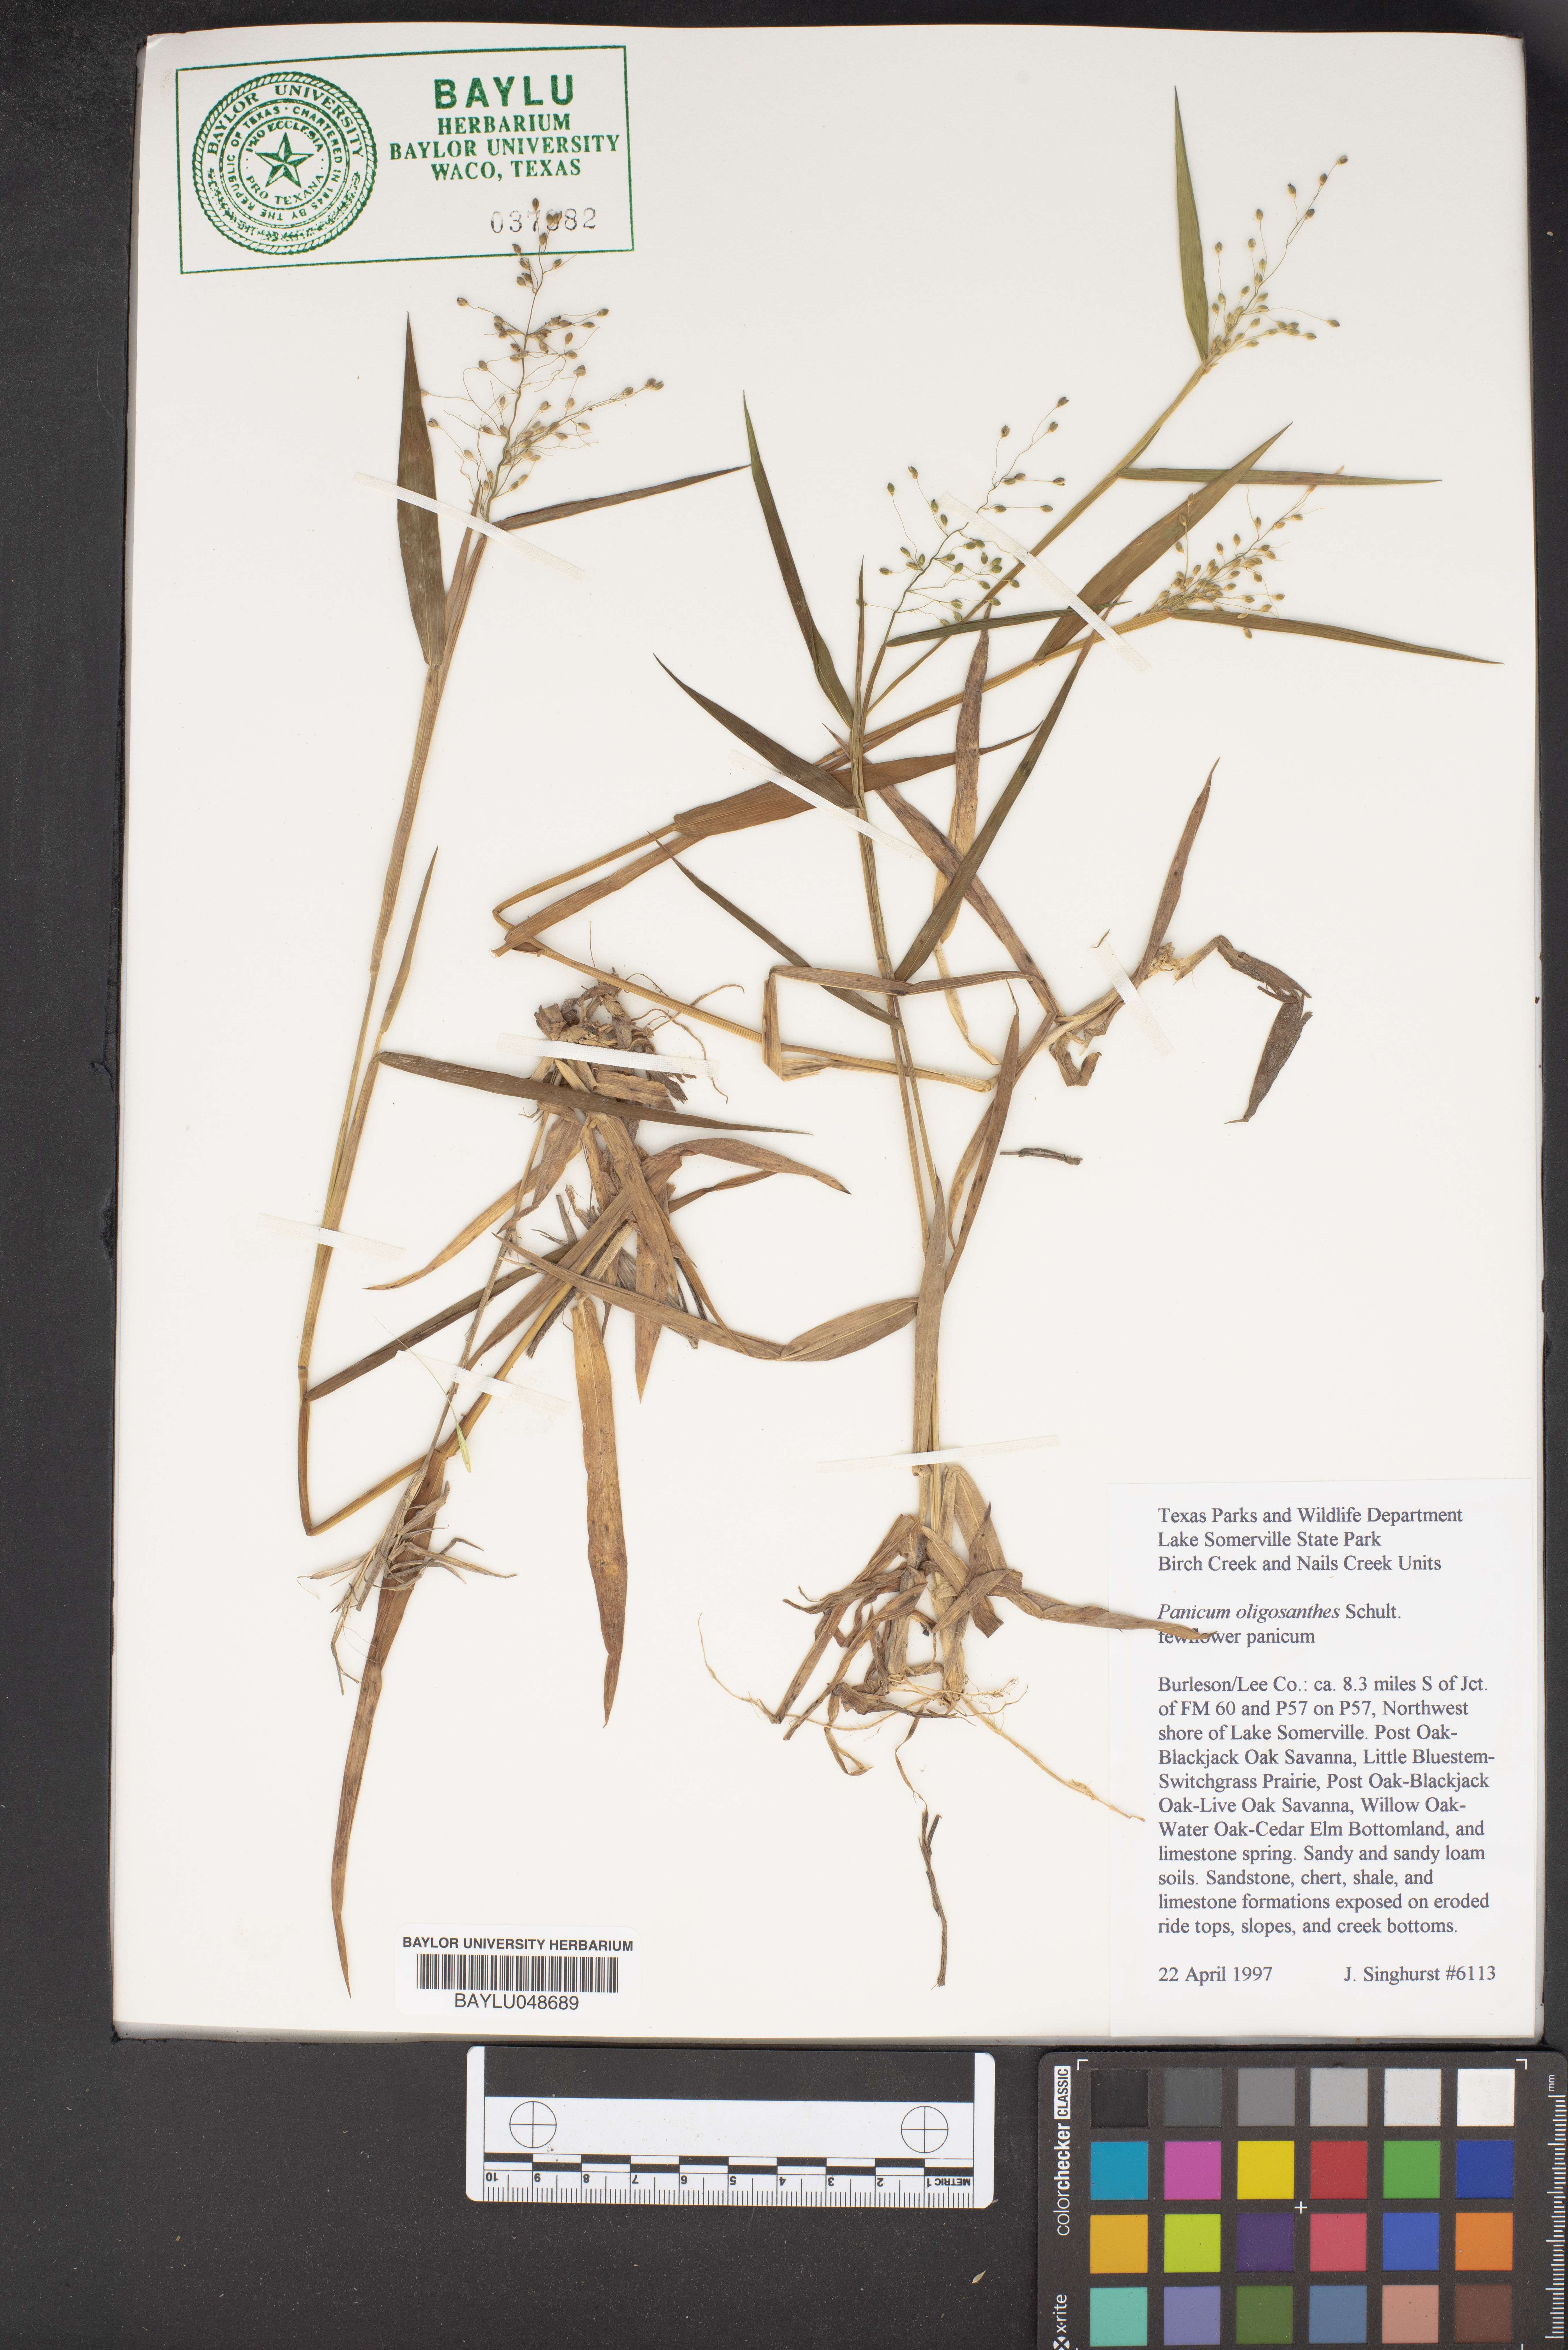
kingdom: Plantae
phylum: Tracheophyta
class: Liliopsida
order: Poales
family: Poaceae
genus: Dichanthelium
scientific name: Dichanthelium oligosanthes
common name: Few-anther obscuregrass
